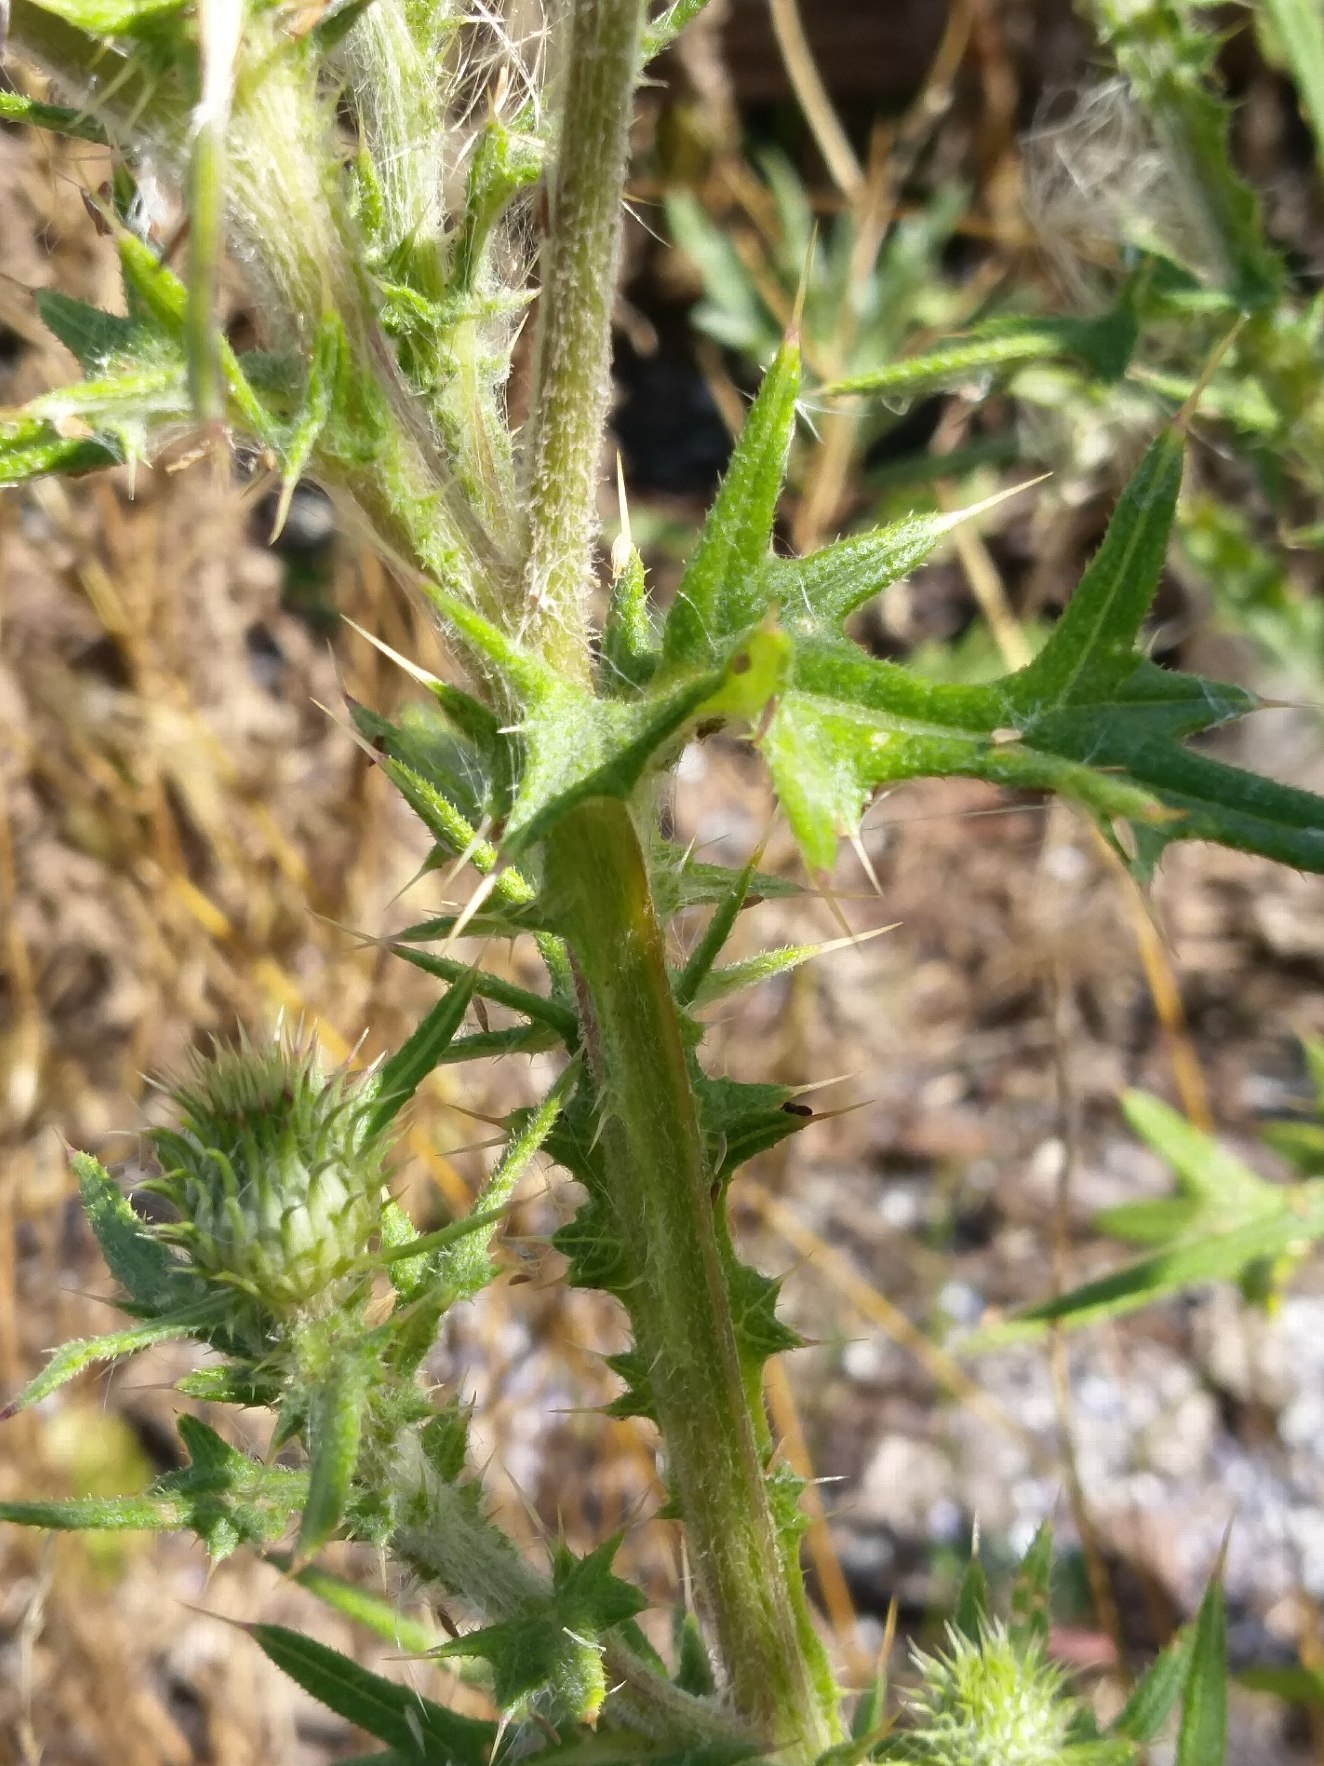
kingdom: Plantae
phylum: Tracheophyta
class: Magnoliopsida
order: Asterales
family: Asteraceae
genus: Cirsium
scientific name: Cirsium vulgare
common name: Horse-tidsel
